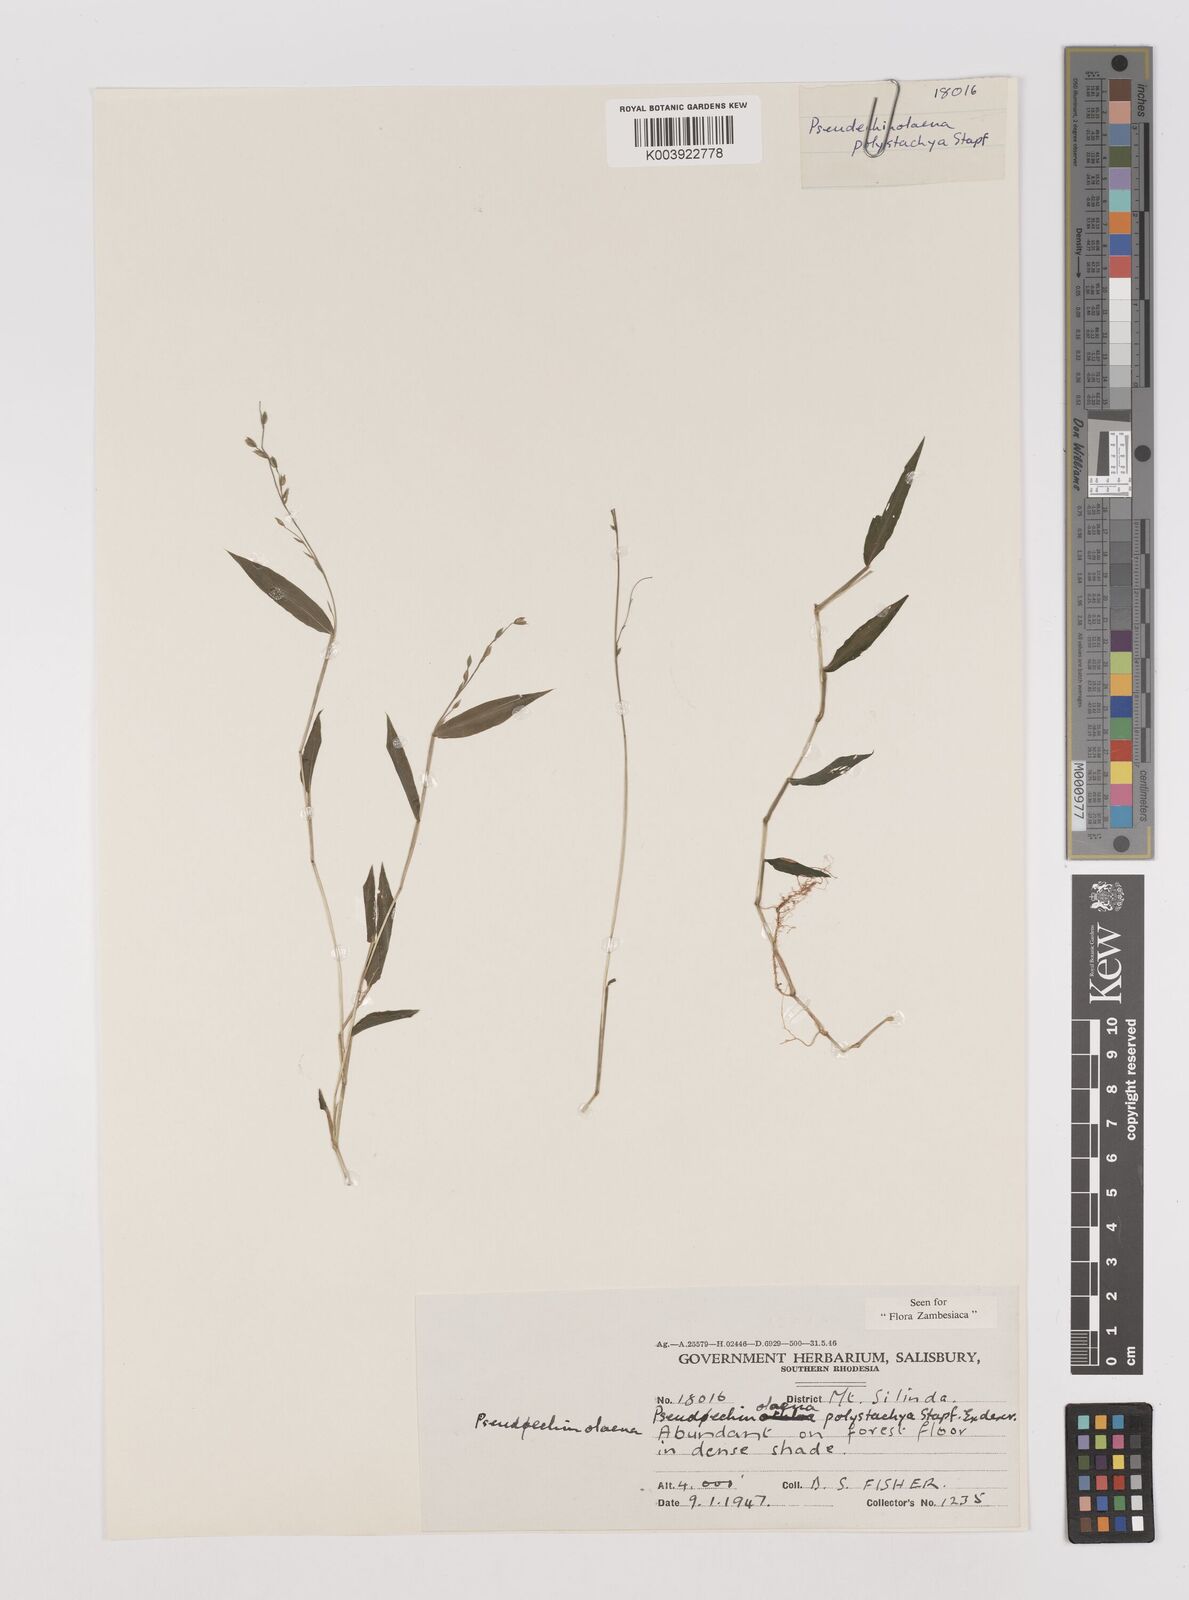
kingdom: Plantae
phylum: Tracheophyta
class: Liliopsida
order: Poales
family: Poaceae
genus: Pseudechinolaena
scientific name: Pseudechinolaena polystachya
